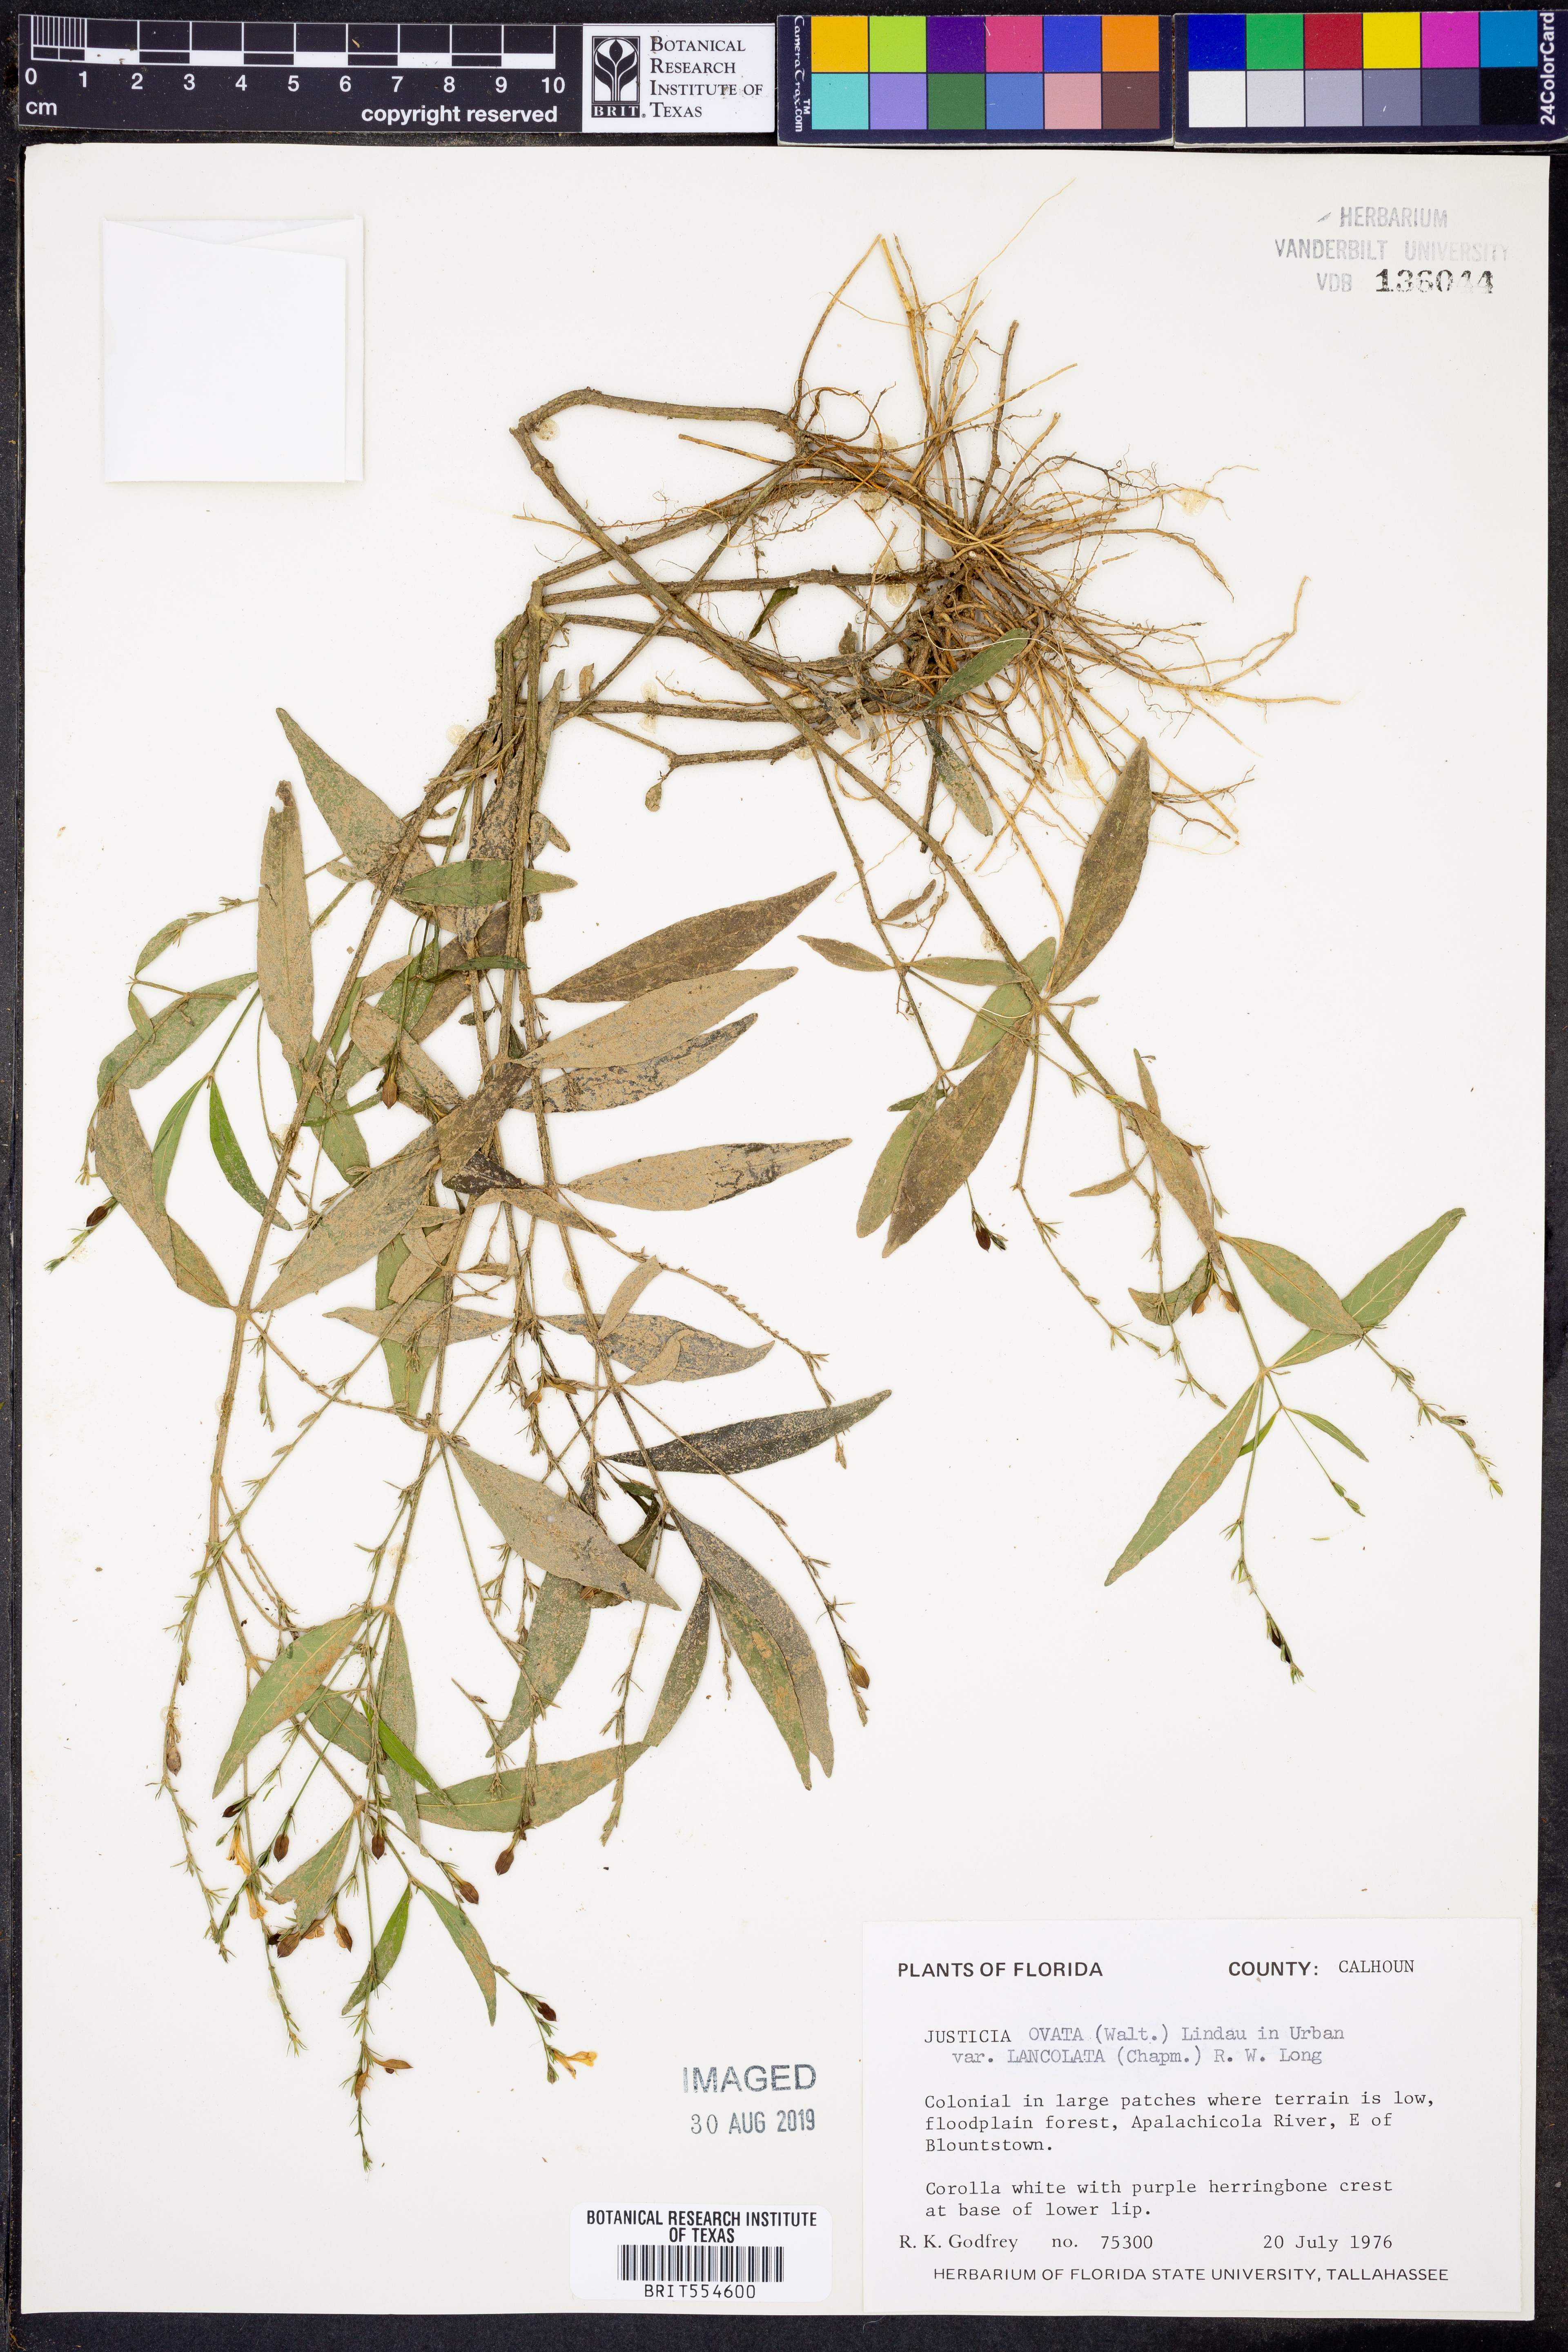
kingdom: Plantae
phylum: Tracheophyta
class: Magnoliopsida
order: Lamiales
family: Acanthaceae
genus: Justicia
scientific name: Justicia lanceolata
